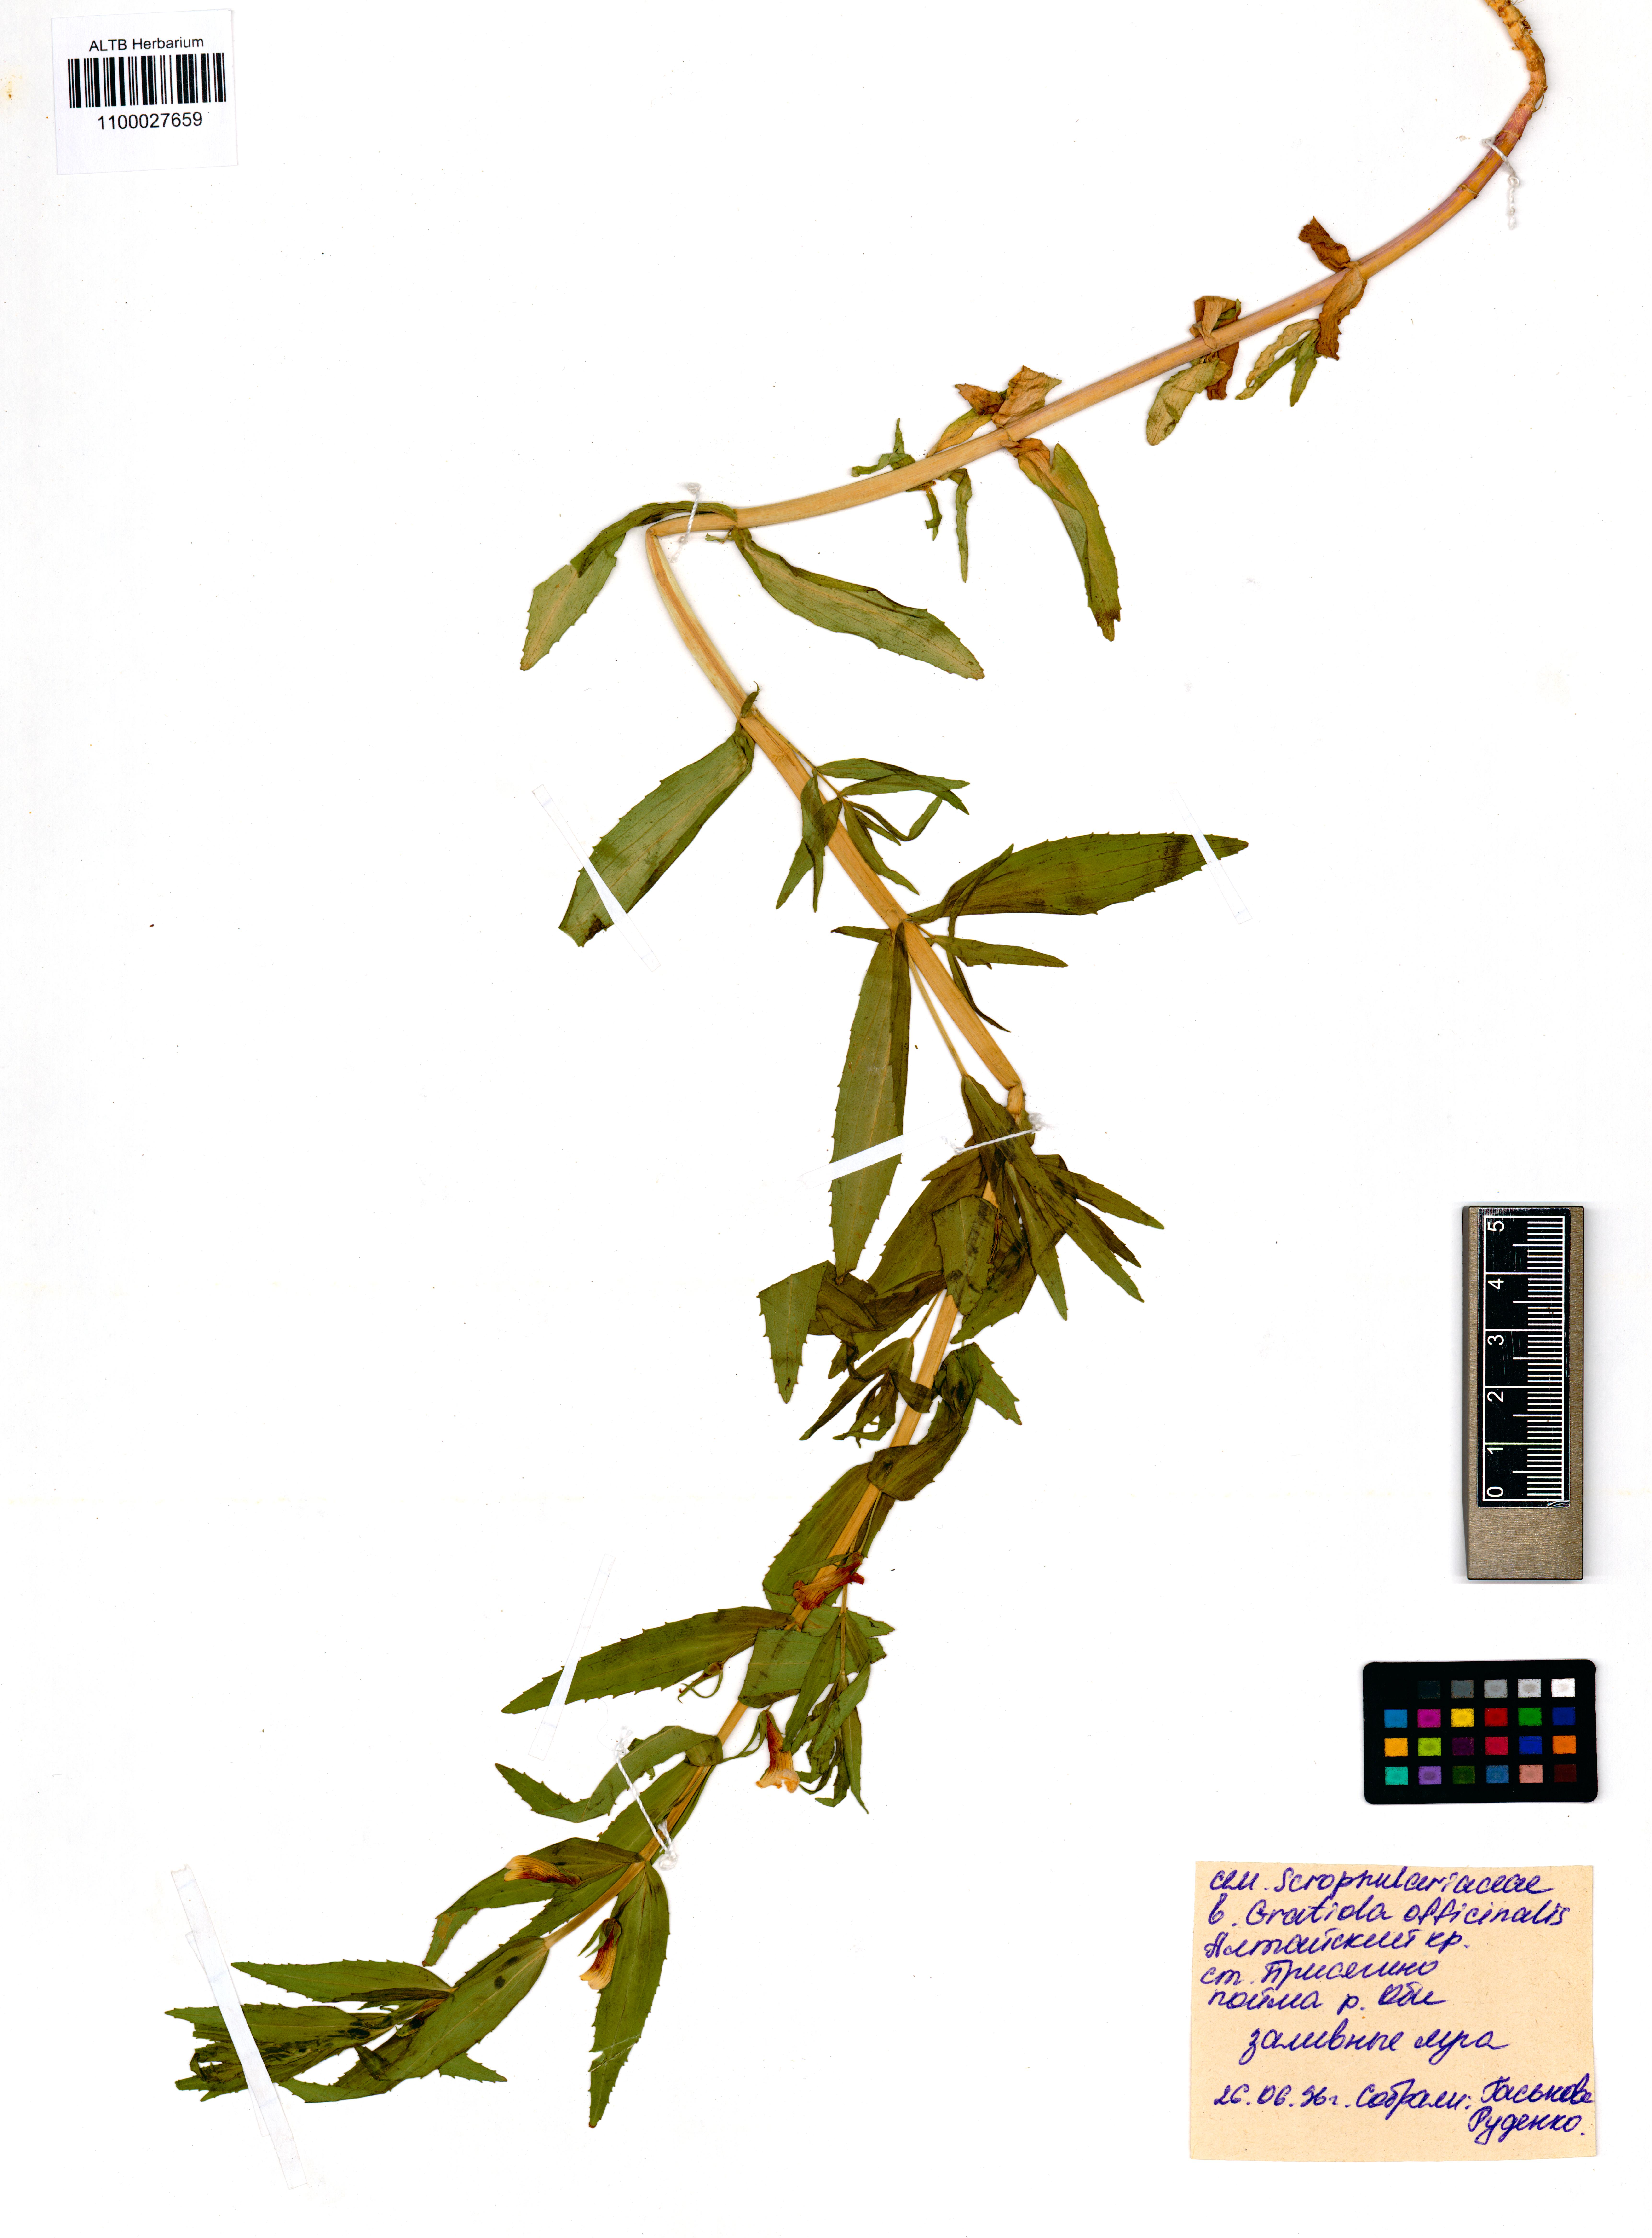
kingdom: Plantae
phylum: Tracheophyta
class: Magnoliopsida
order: Lamiales
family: Plantaginaceae
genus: Gratiola
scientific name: Gratiola officinalis
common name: Gratiola
